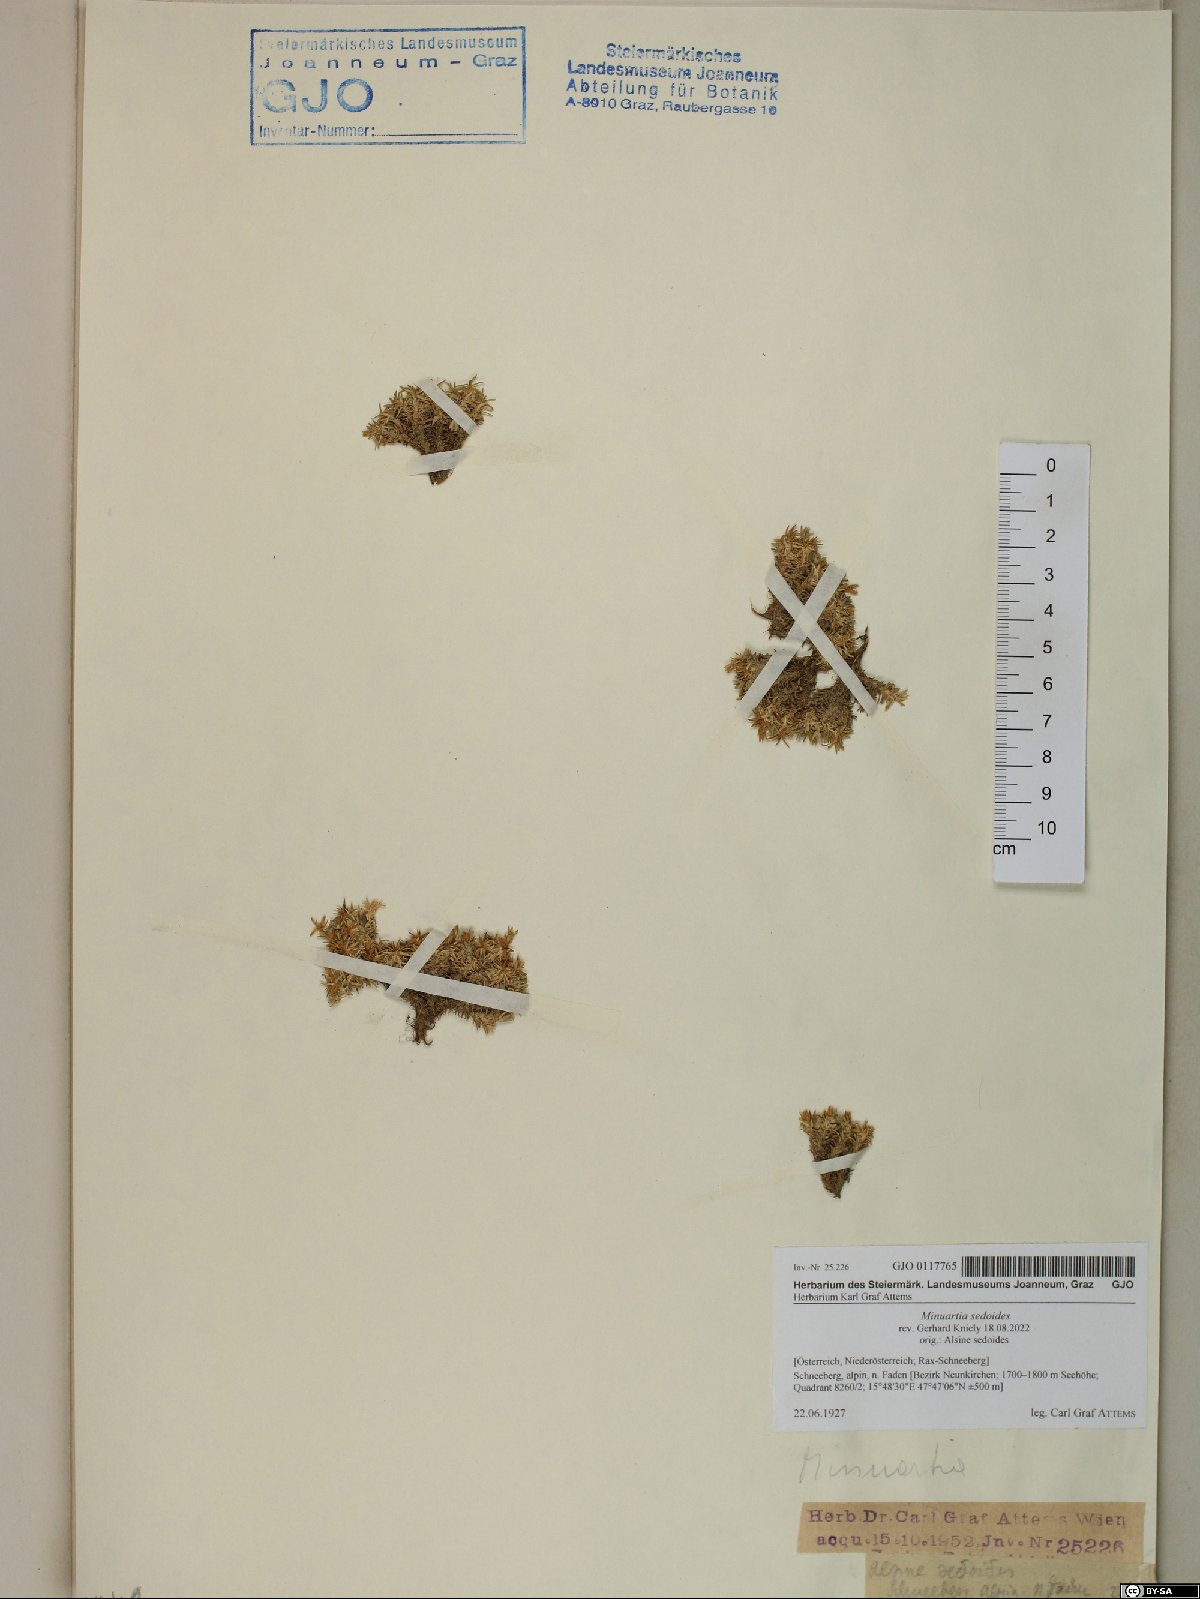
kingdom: Plantae
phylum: Tracheophyta
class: Magnoliopsida
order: Caryophyllales
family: Caryophyllaceae
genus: Cherleria
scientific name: Cherleria sedoides
